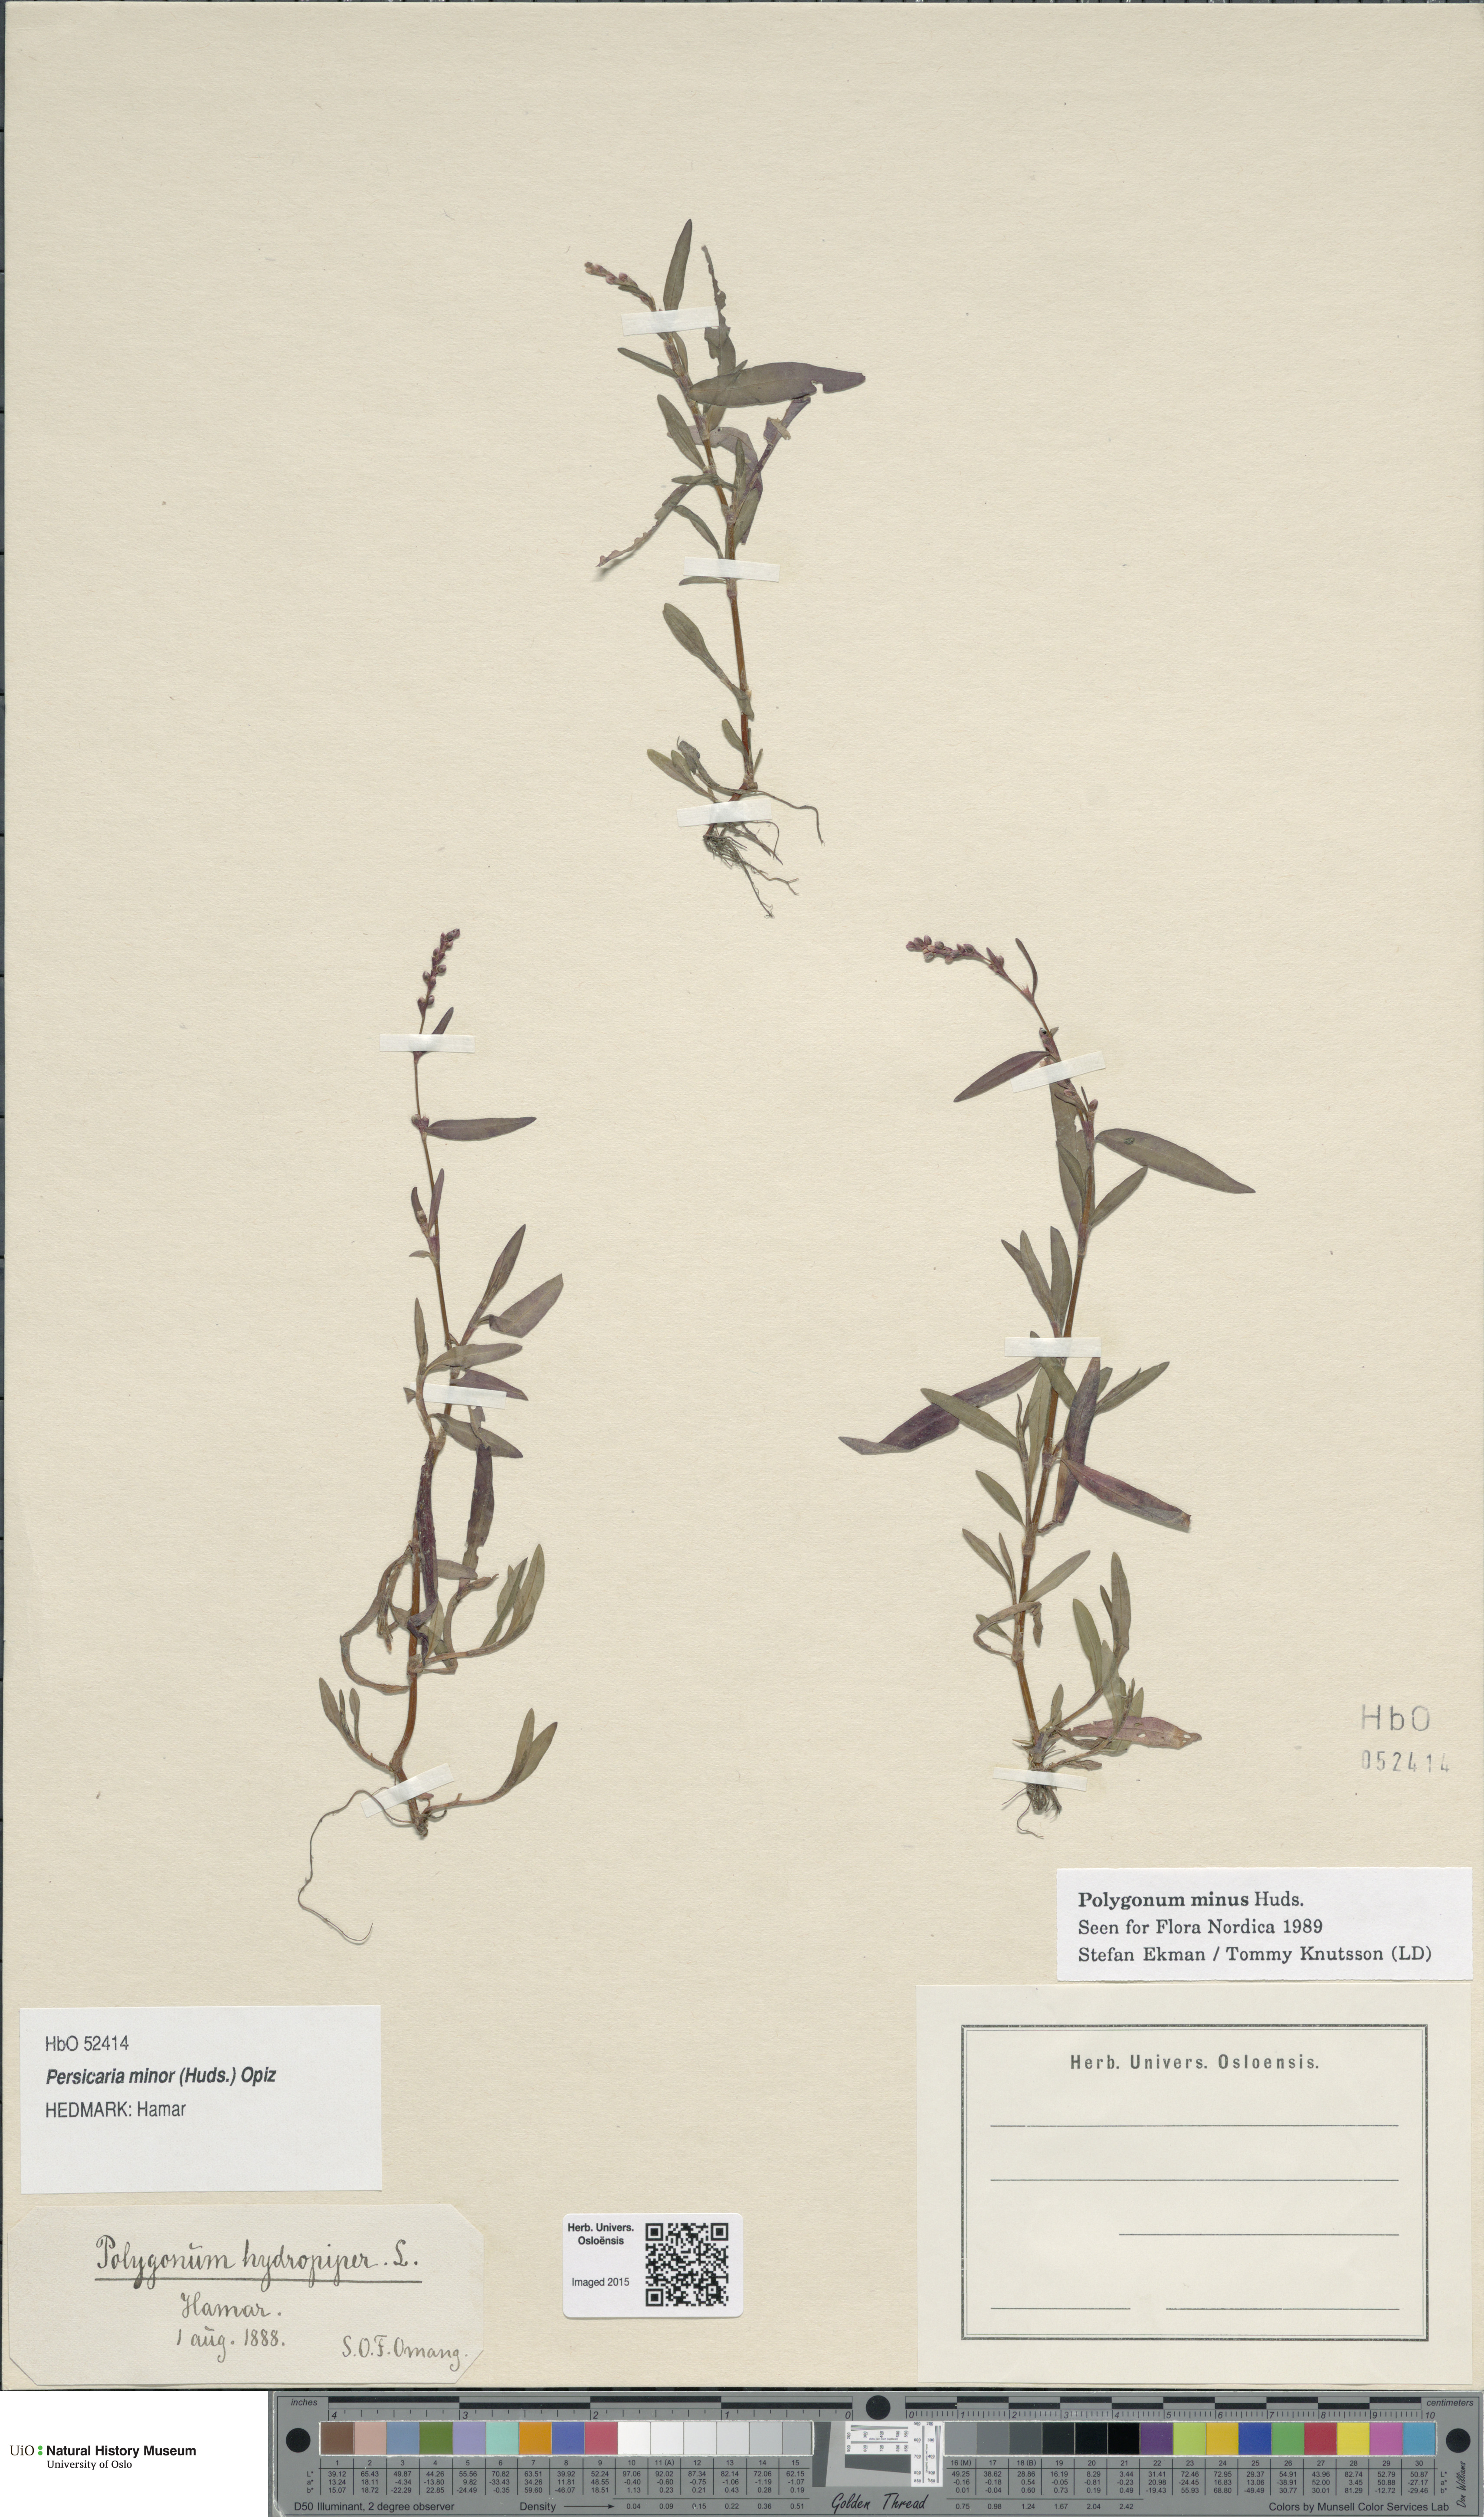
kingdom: Plantae
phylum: Tracheophyta
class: Magnoliopsida
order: Caryophyllales
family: Polygonaceae
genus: Persicaria
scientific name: Persicaria minor
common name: Small water-pepper
